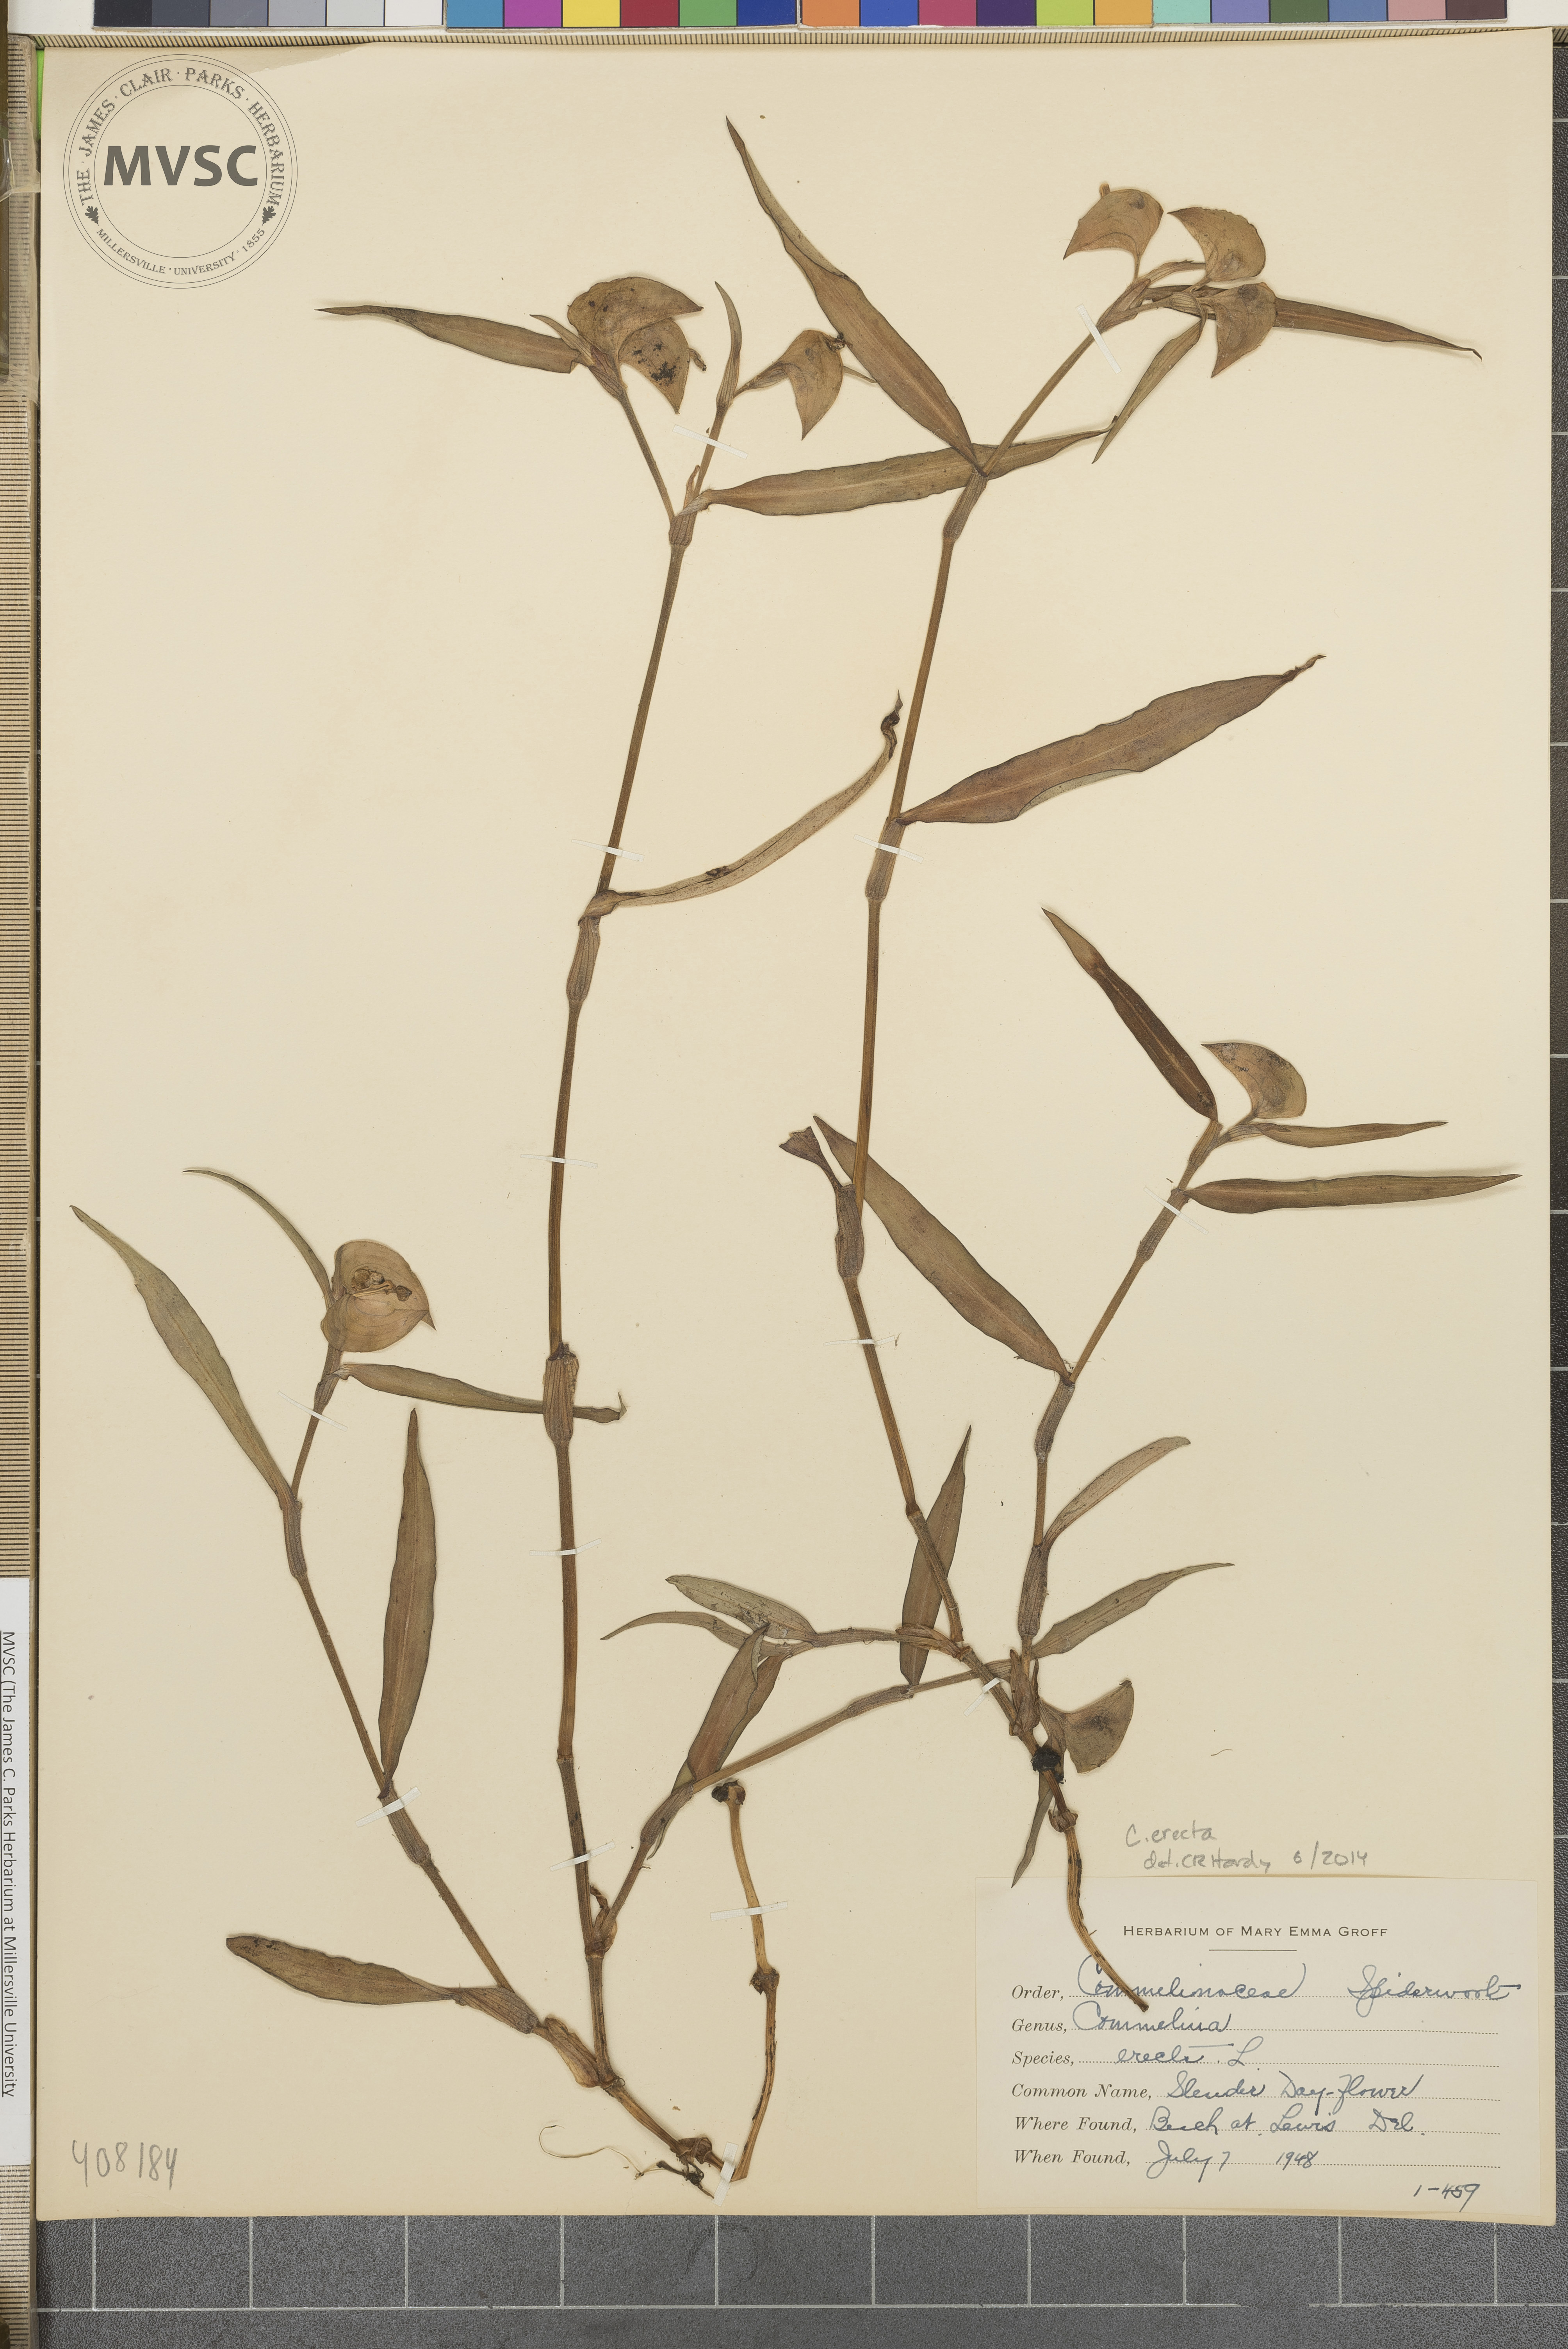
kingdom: Plantae
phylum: Tracheophyta
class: Liliopsida
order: Commelinales
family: Commelinaceae
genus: Commelina
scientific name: Commelina erecta
